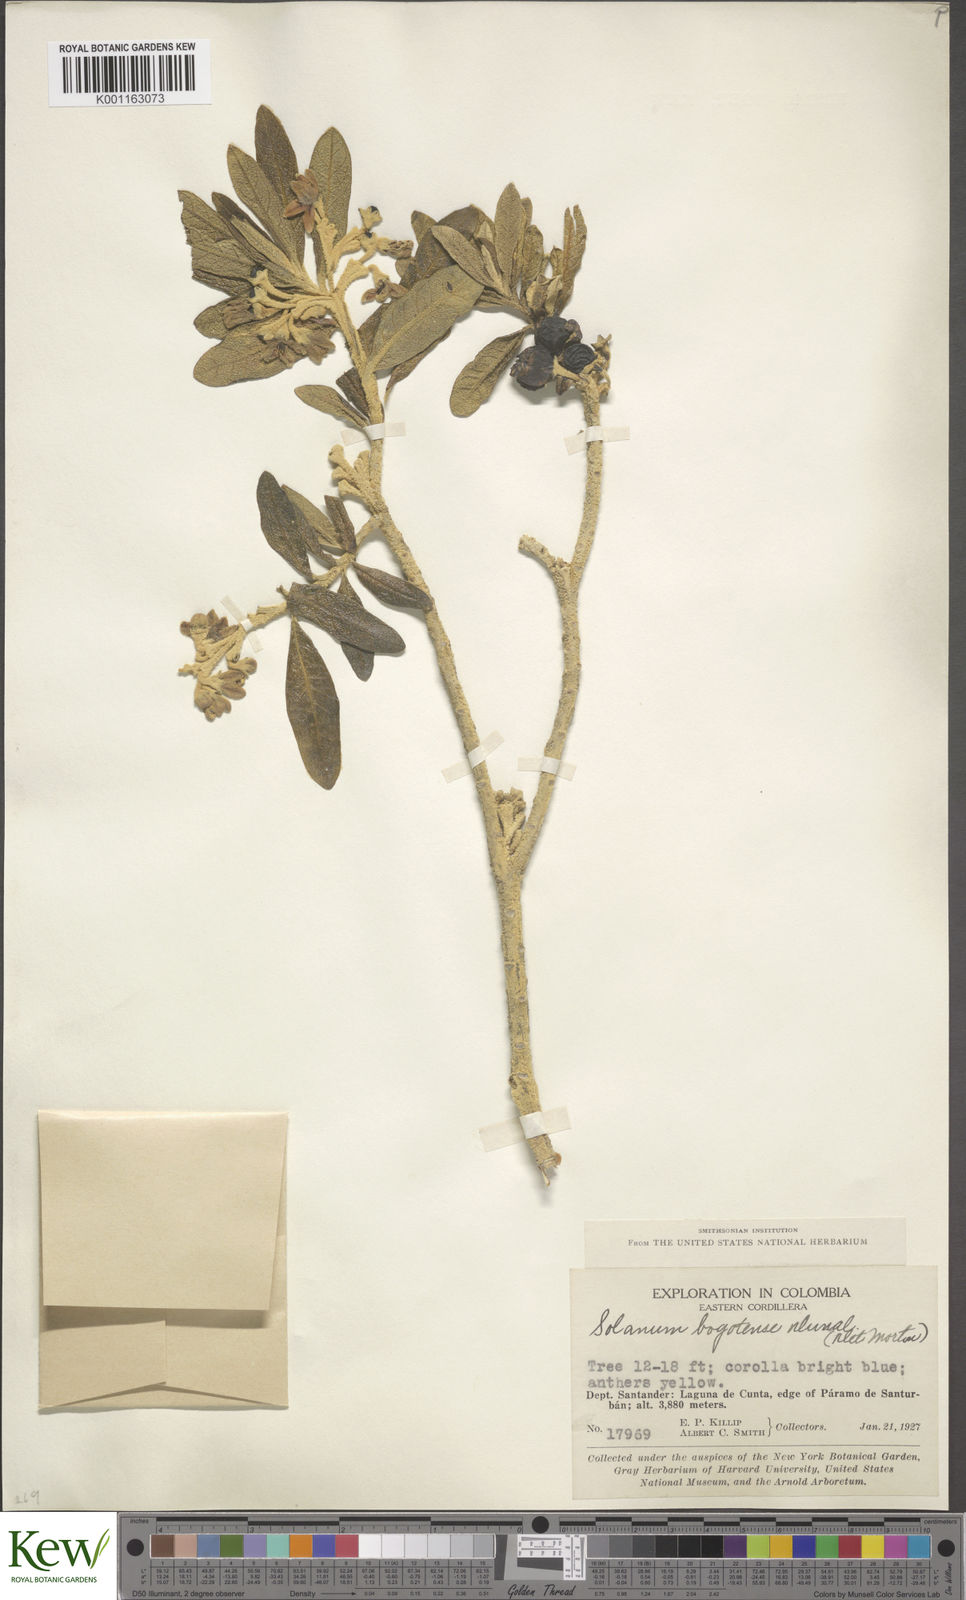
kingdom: Plantae
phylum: Tracheophyta
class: Magnoliopsida
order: Solanales
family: Solanaceae
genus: Solanum
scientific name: Solanum stenophyllum
